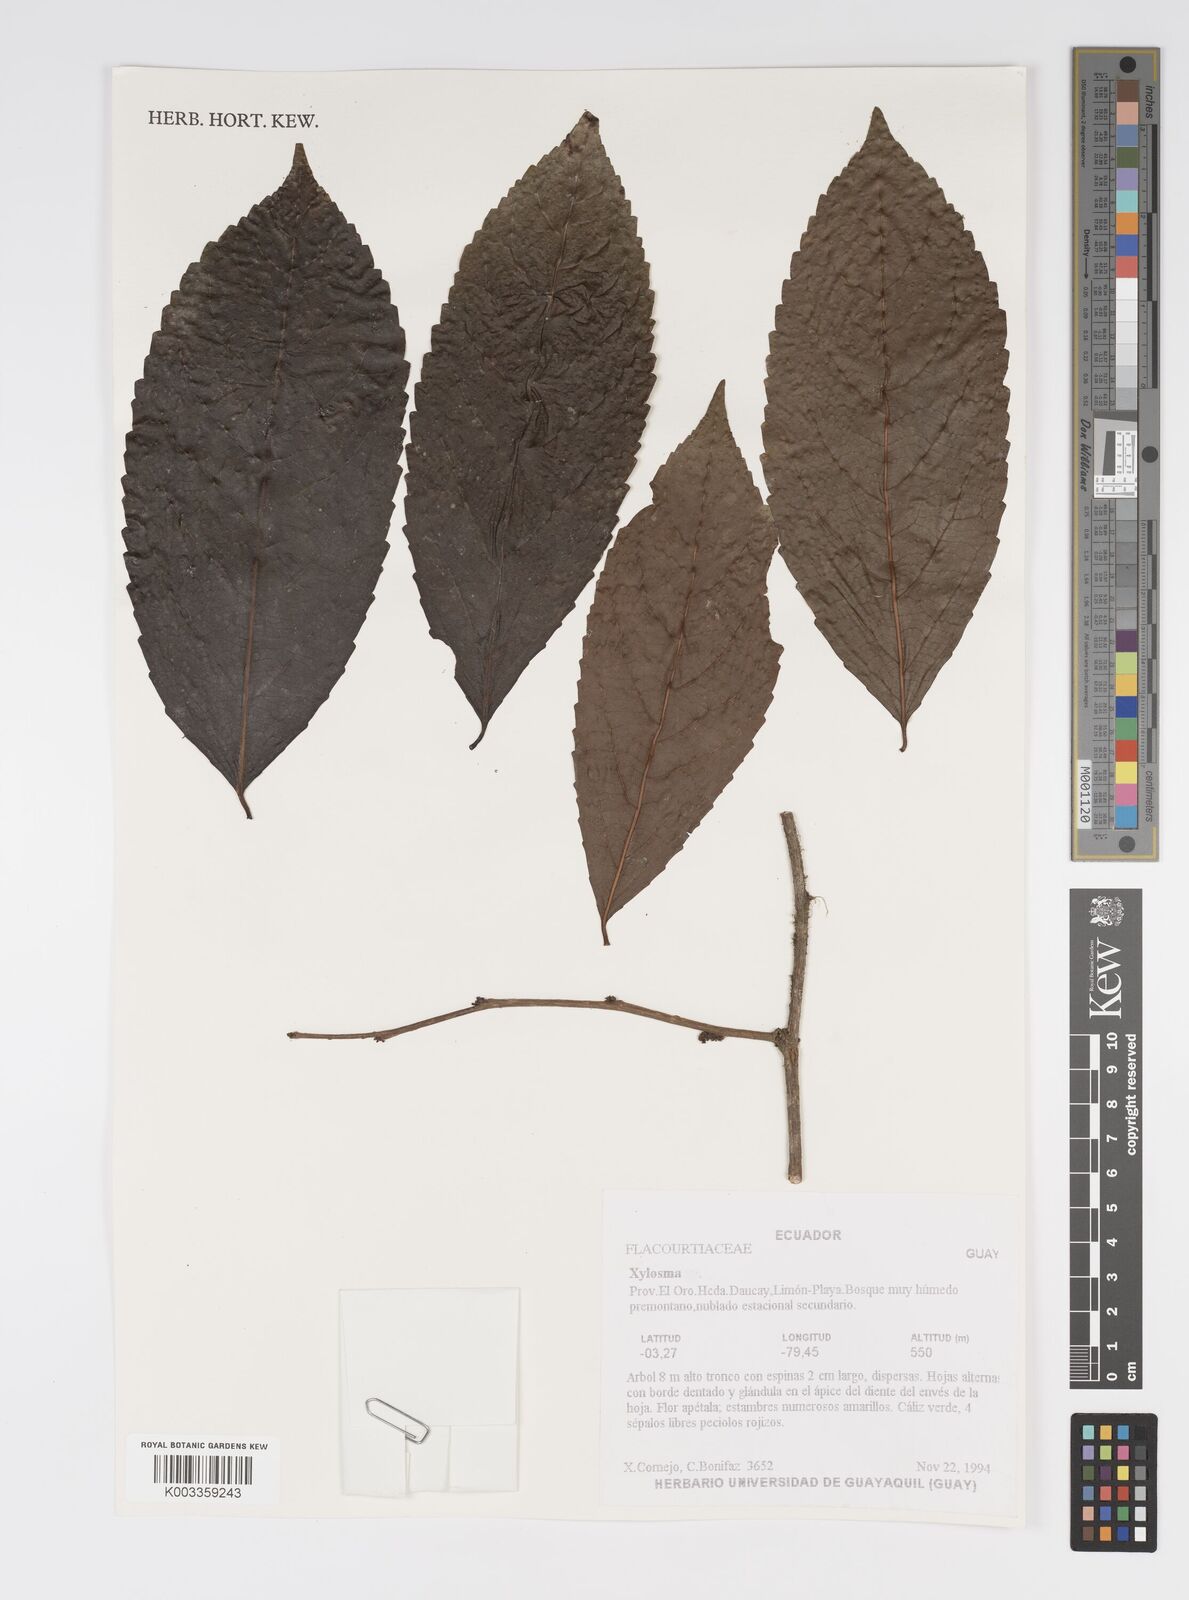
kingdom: Plantae
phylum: Tracheophyta
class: Magnoliopsida
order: Malpighiales
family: Salicaceae
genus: Xylosma
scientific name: Xylosma
